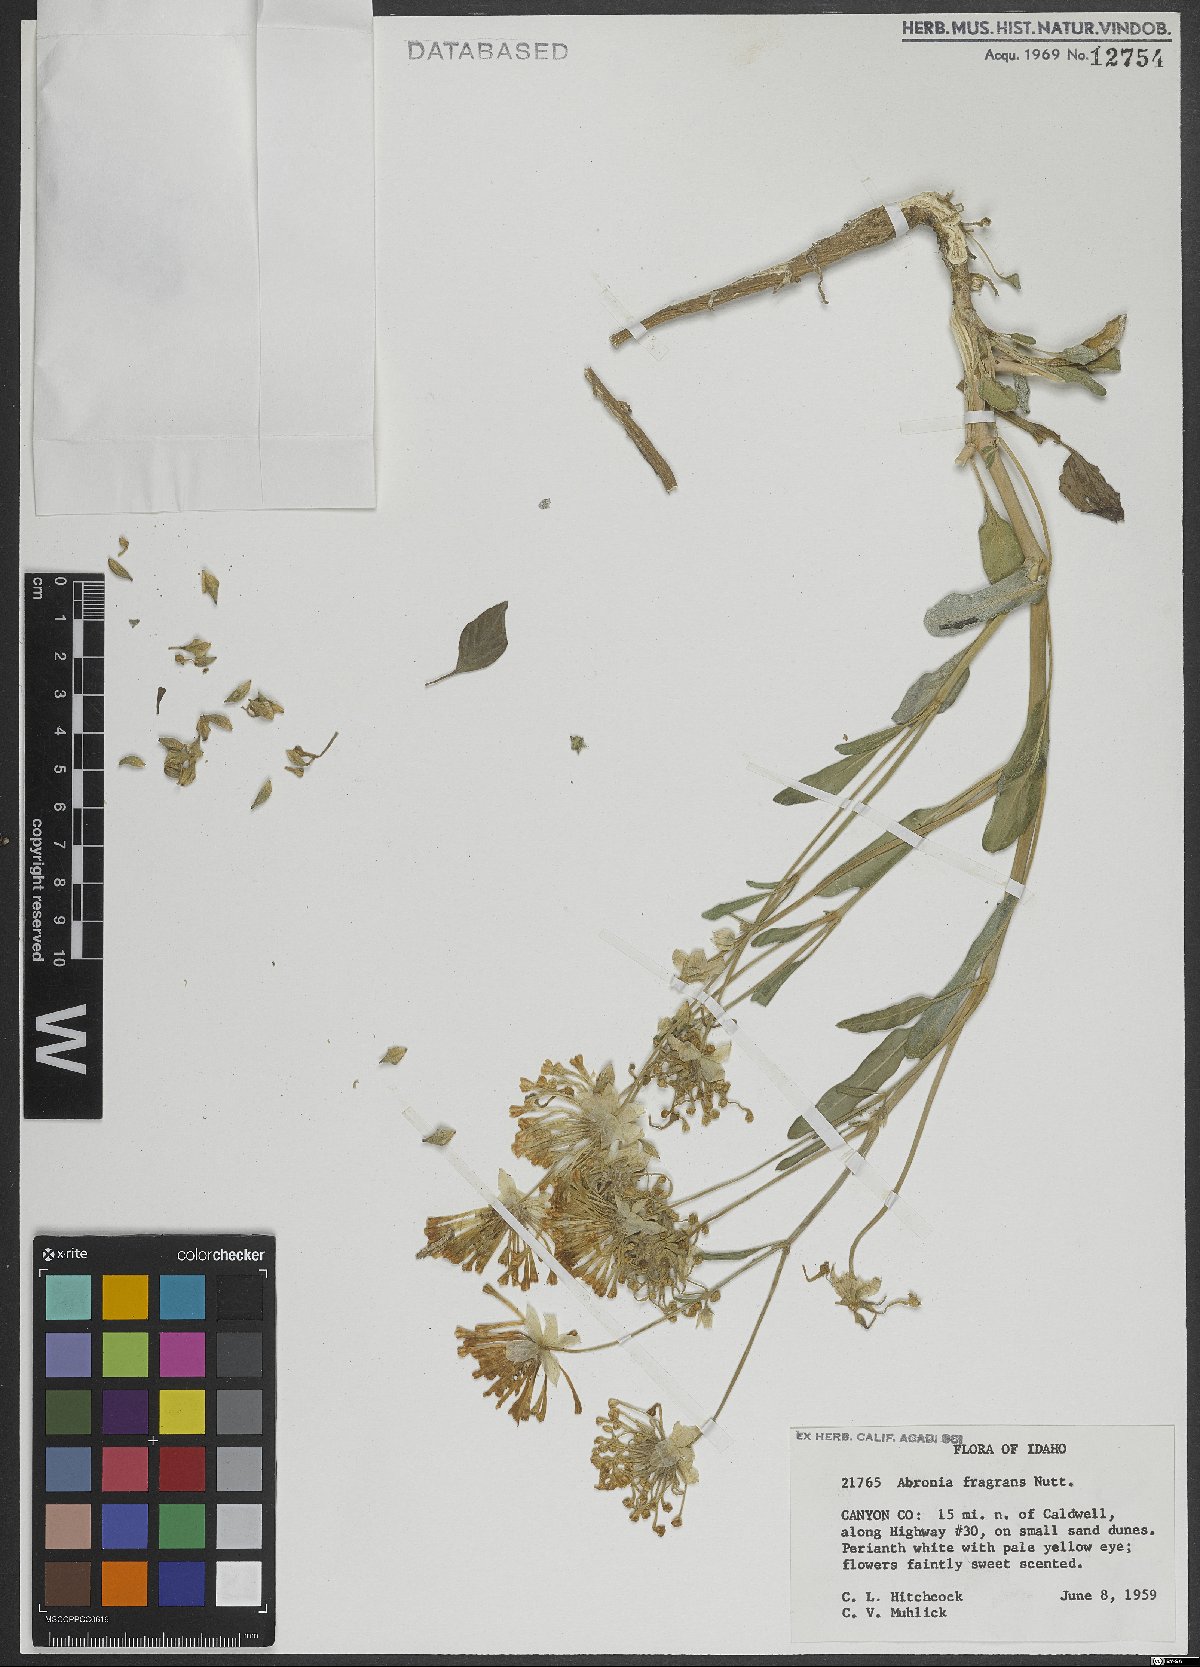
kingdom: Plantae
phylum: Tracheophyta
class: Magnoliopsida
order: Caryophyllales
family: Nyctaginaceae
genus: Abronia
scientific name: Abronia fragrans
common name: Fragrant sand-verbena
